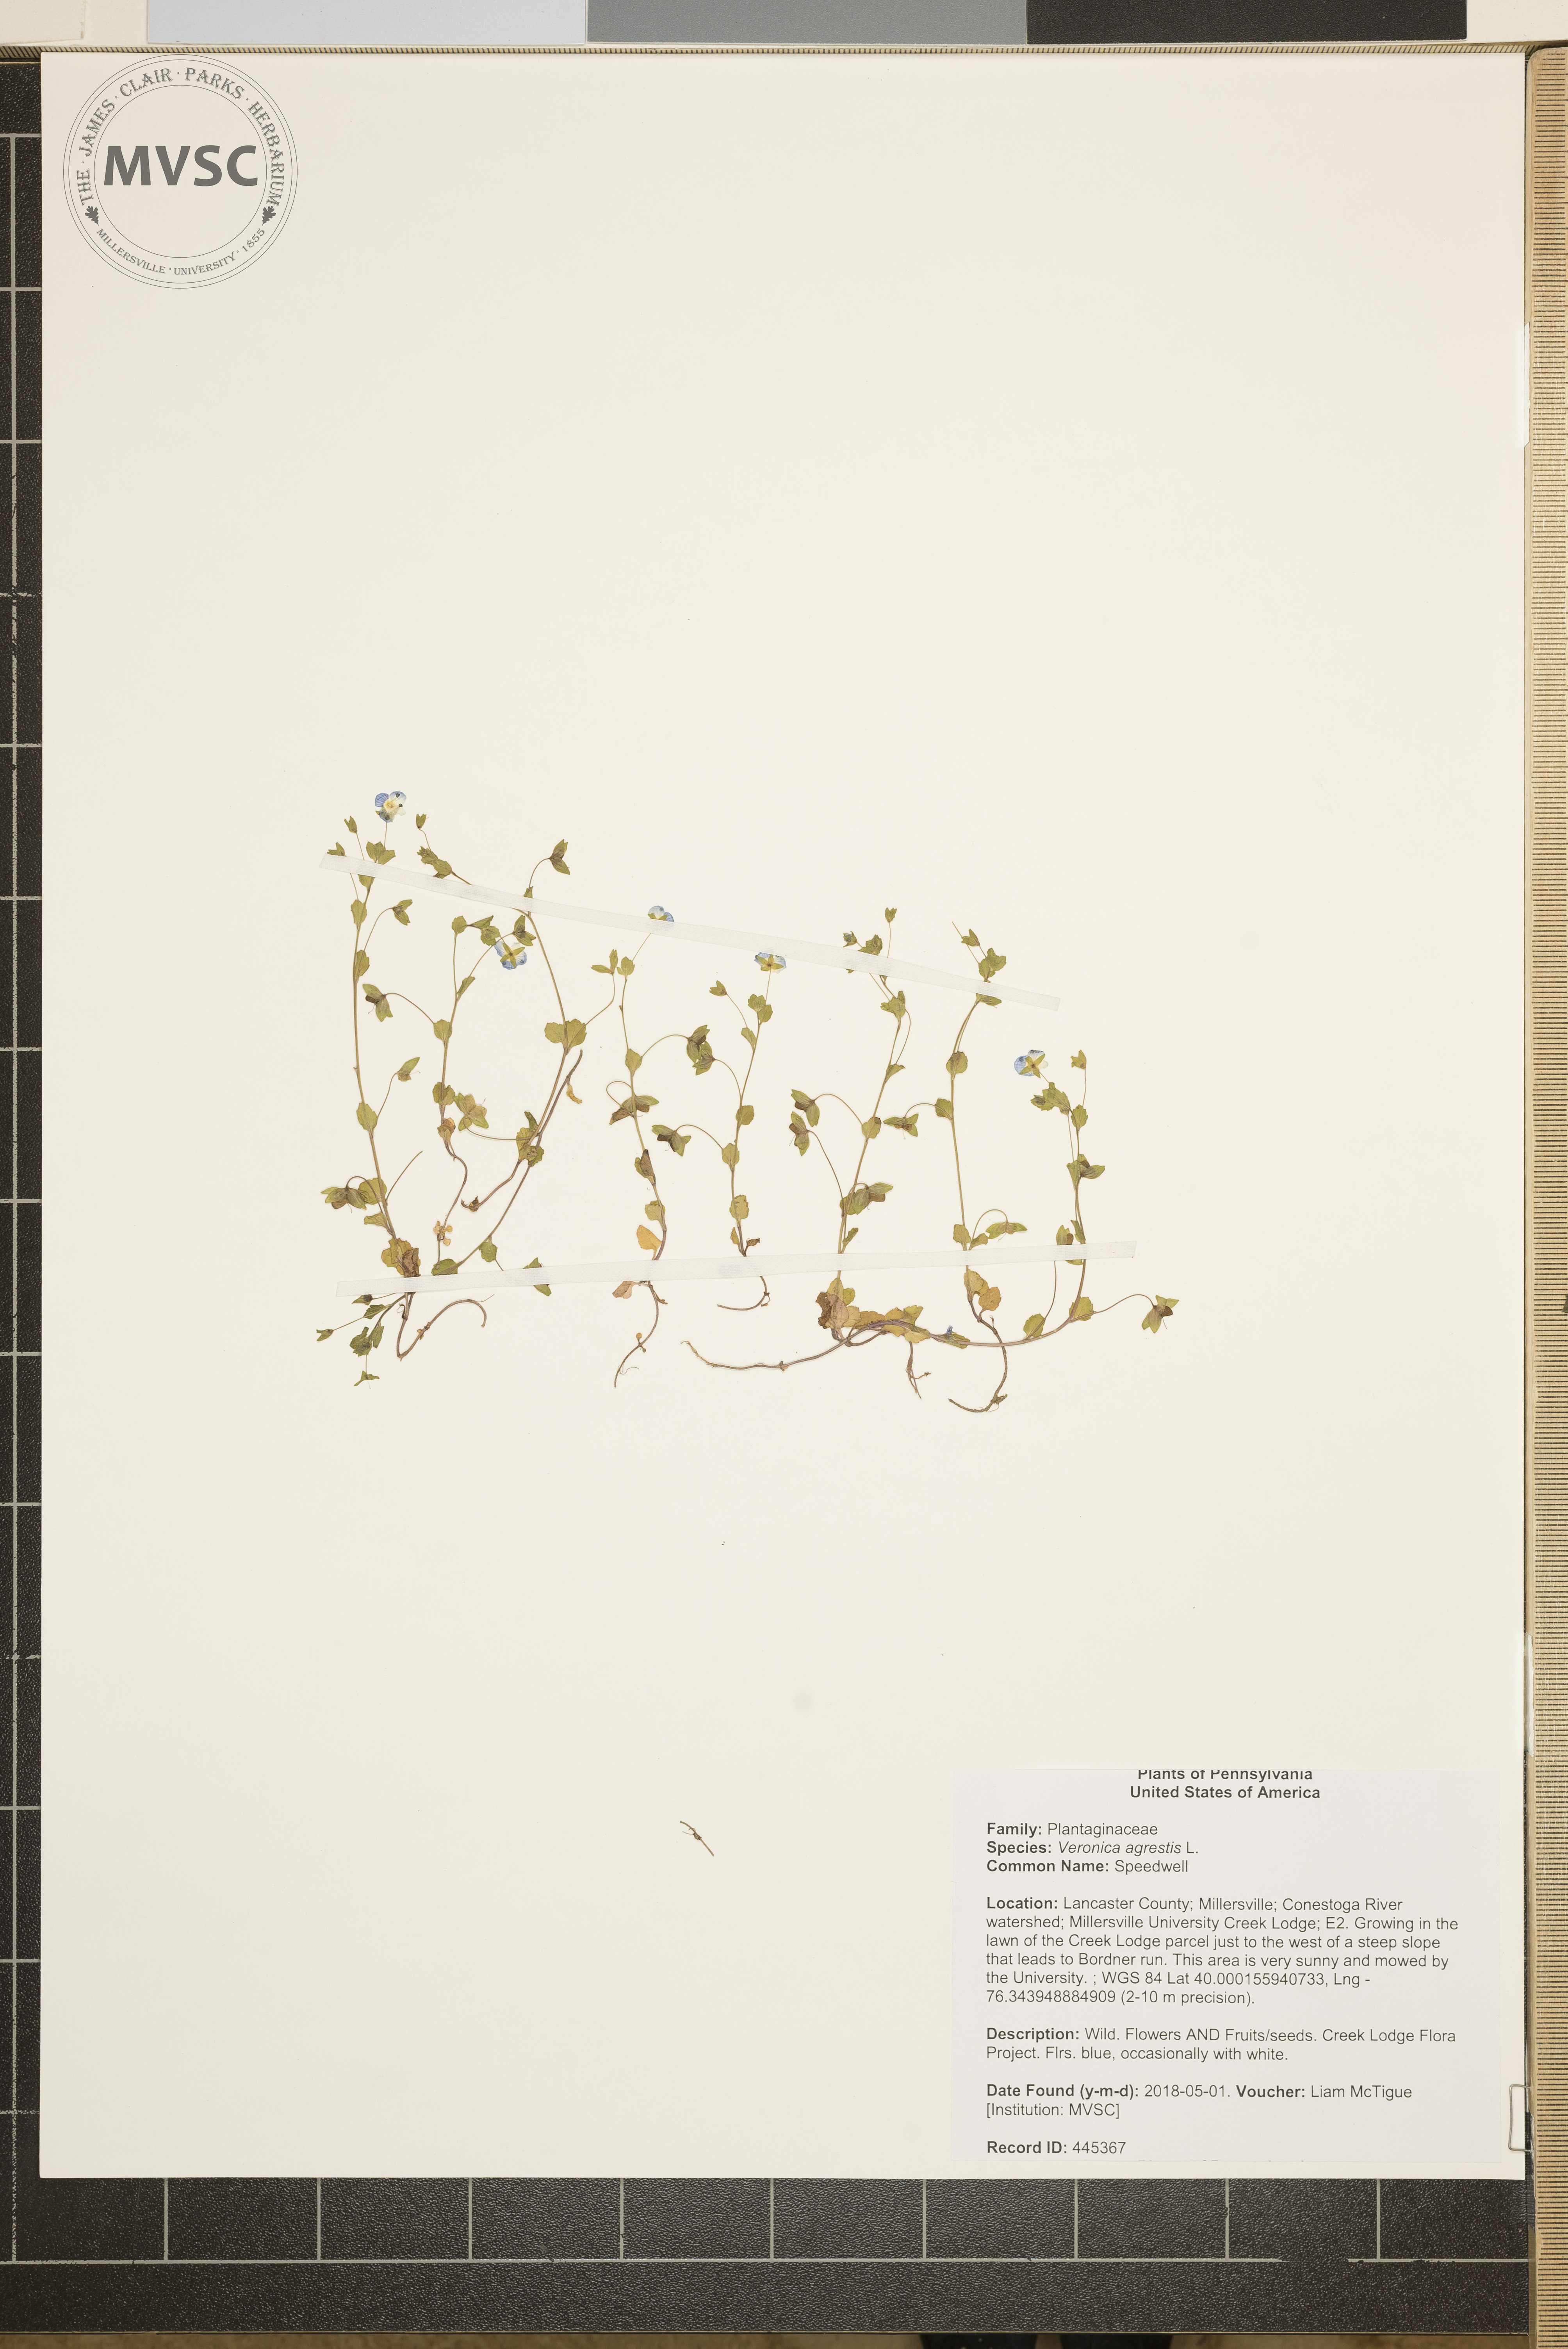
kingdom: Plantae
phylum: Tracheophyta
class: Magnoliopsida
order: Lamiales
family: Plantaginaceae
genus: Veronica
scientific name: Veronica agrestis
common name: Speedwell
